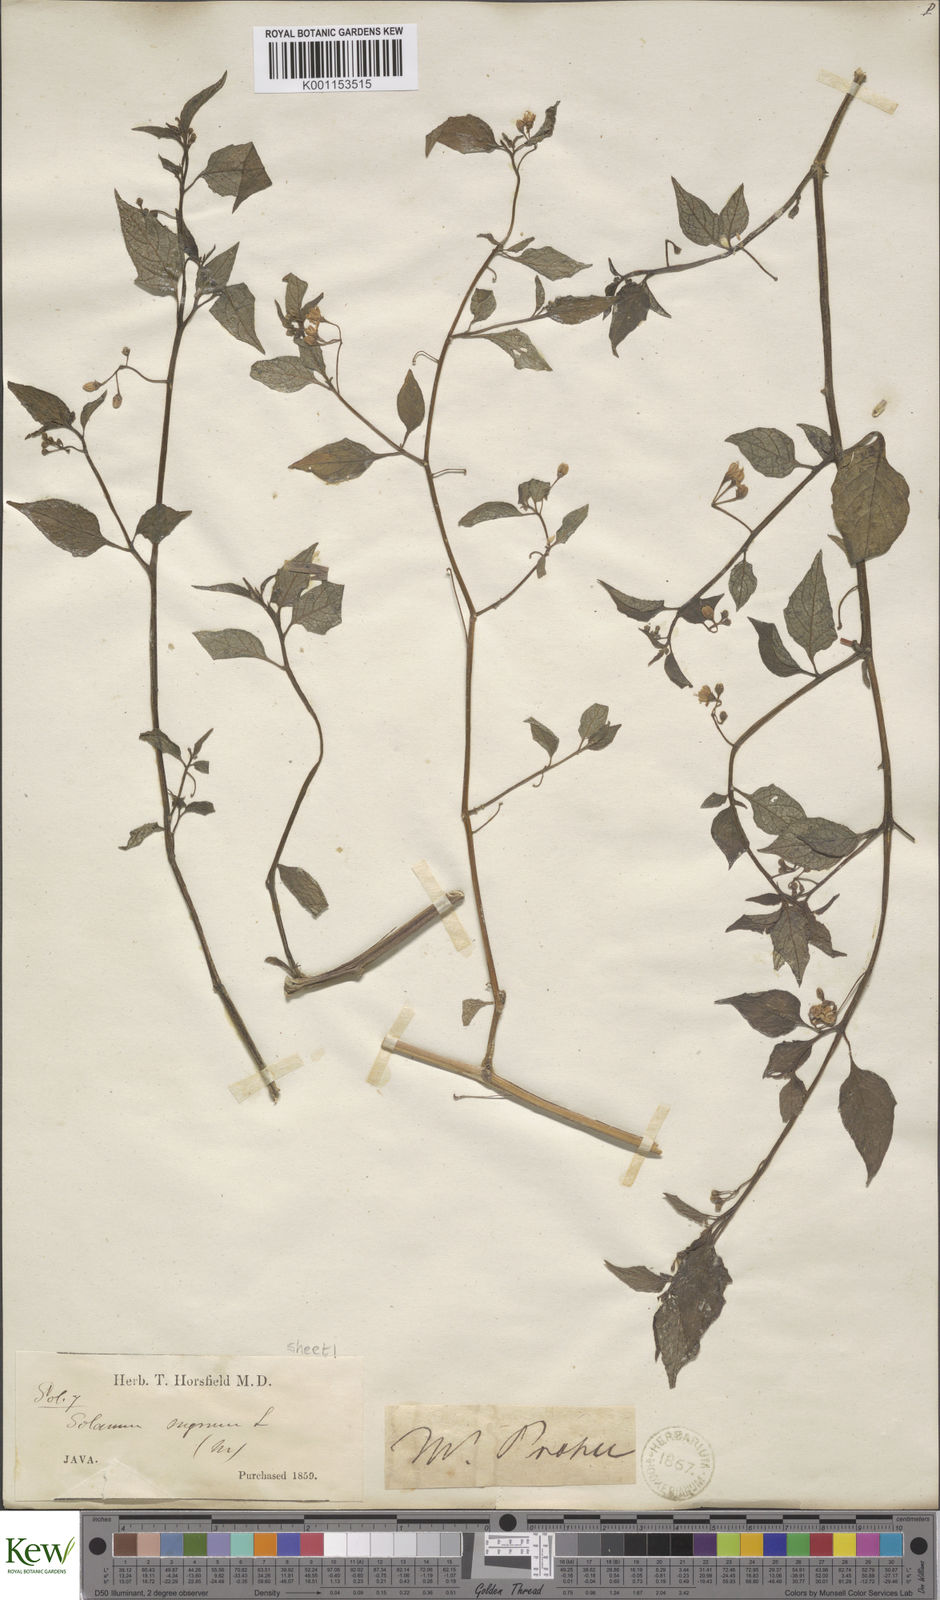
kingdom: Plantae
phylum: Tracheophyta
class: Magnoliopsida
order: Solanales
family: Solanaceae
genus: Solanum
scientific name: Solanum nigrum
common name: Black nightshade
